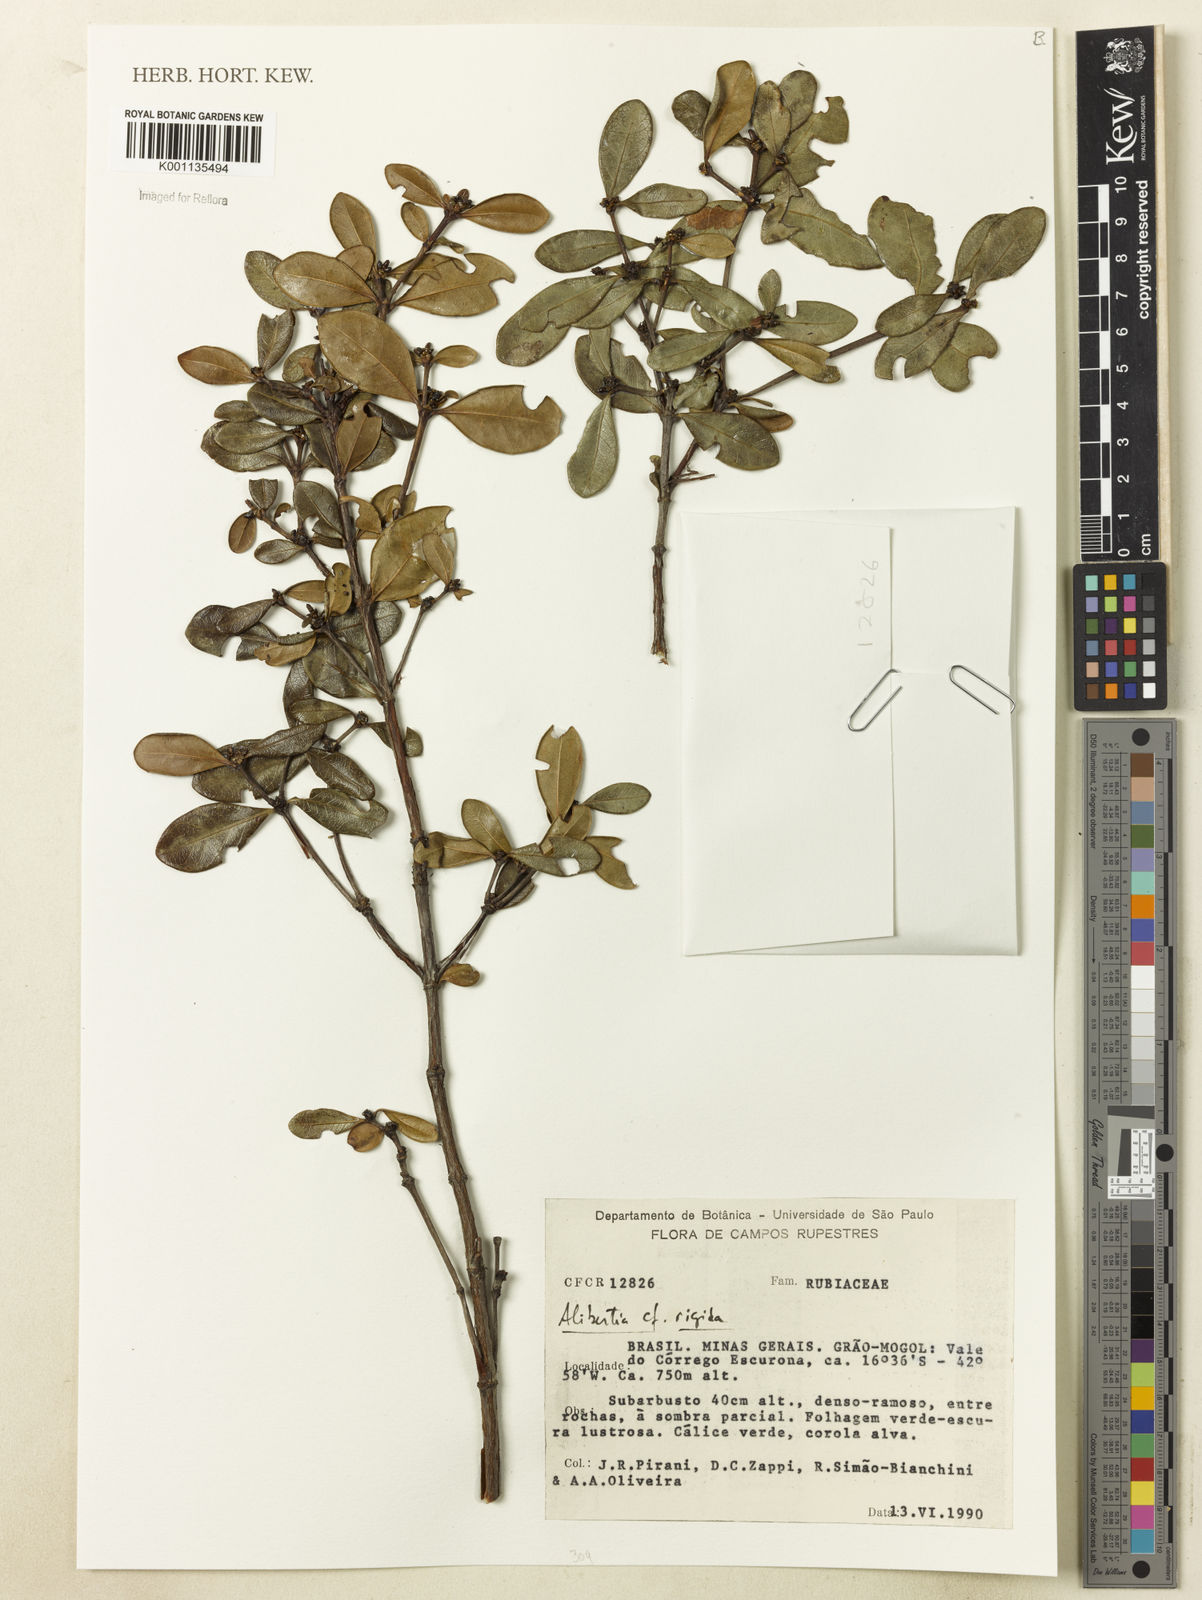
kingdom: Plantae
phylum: Tracheophyta
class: Magnoliopsida
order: Gentianales
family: Rubiaceae
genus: Cordiera
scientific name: Cordiera rigida
